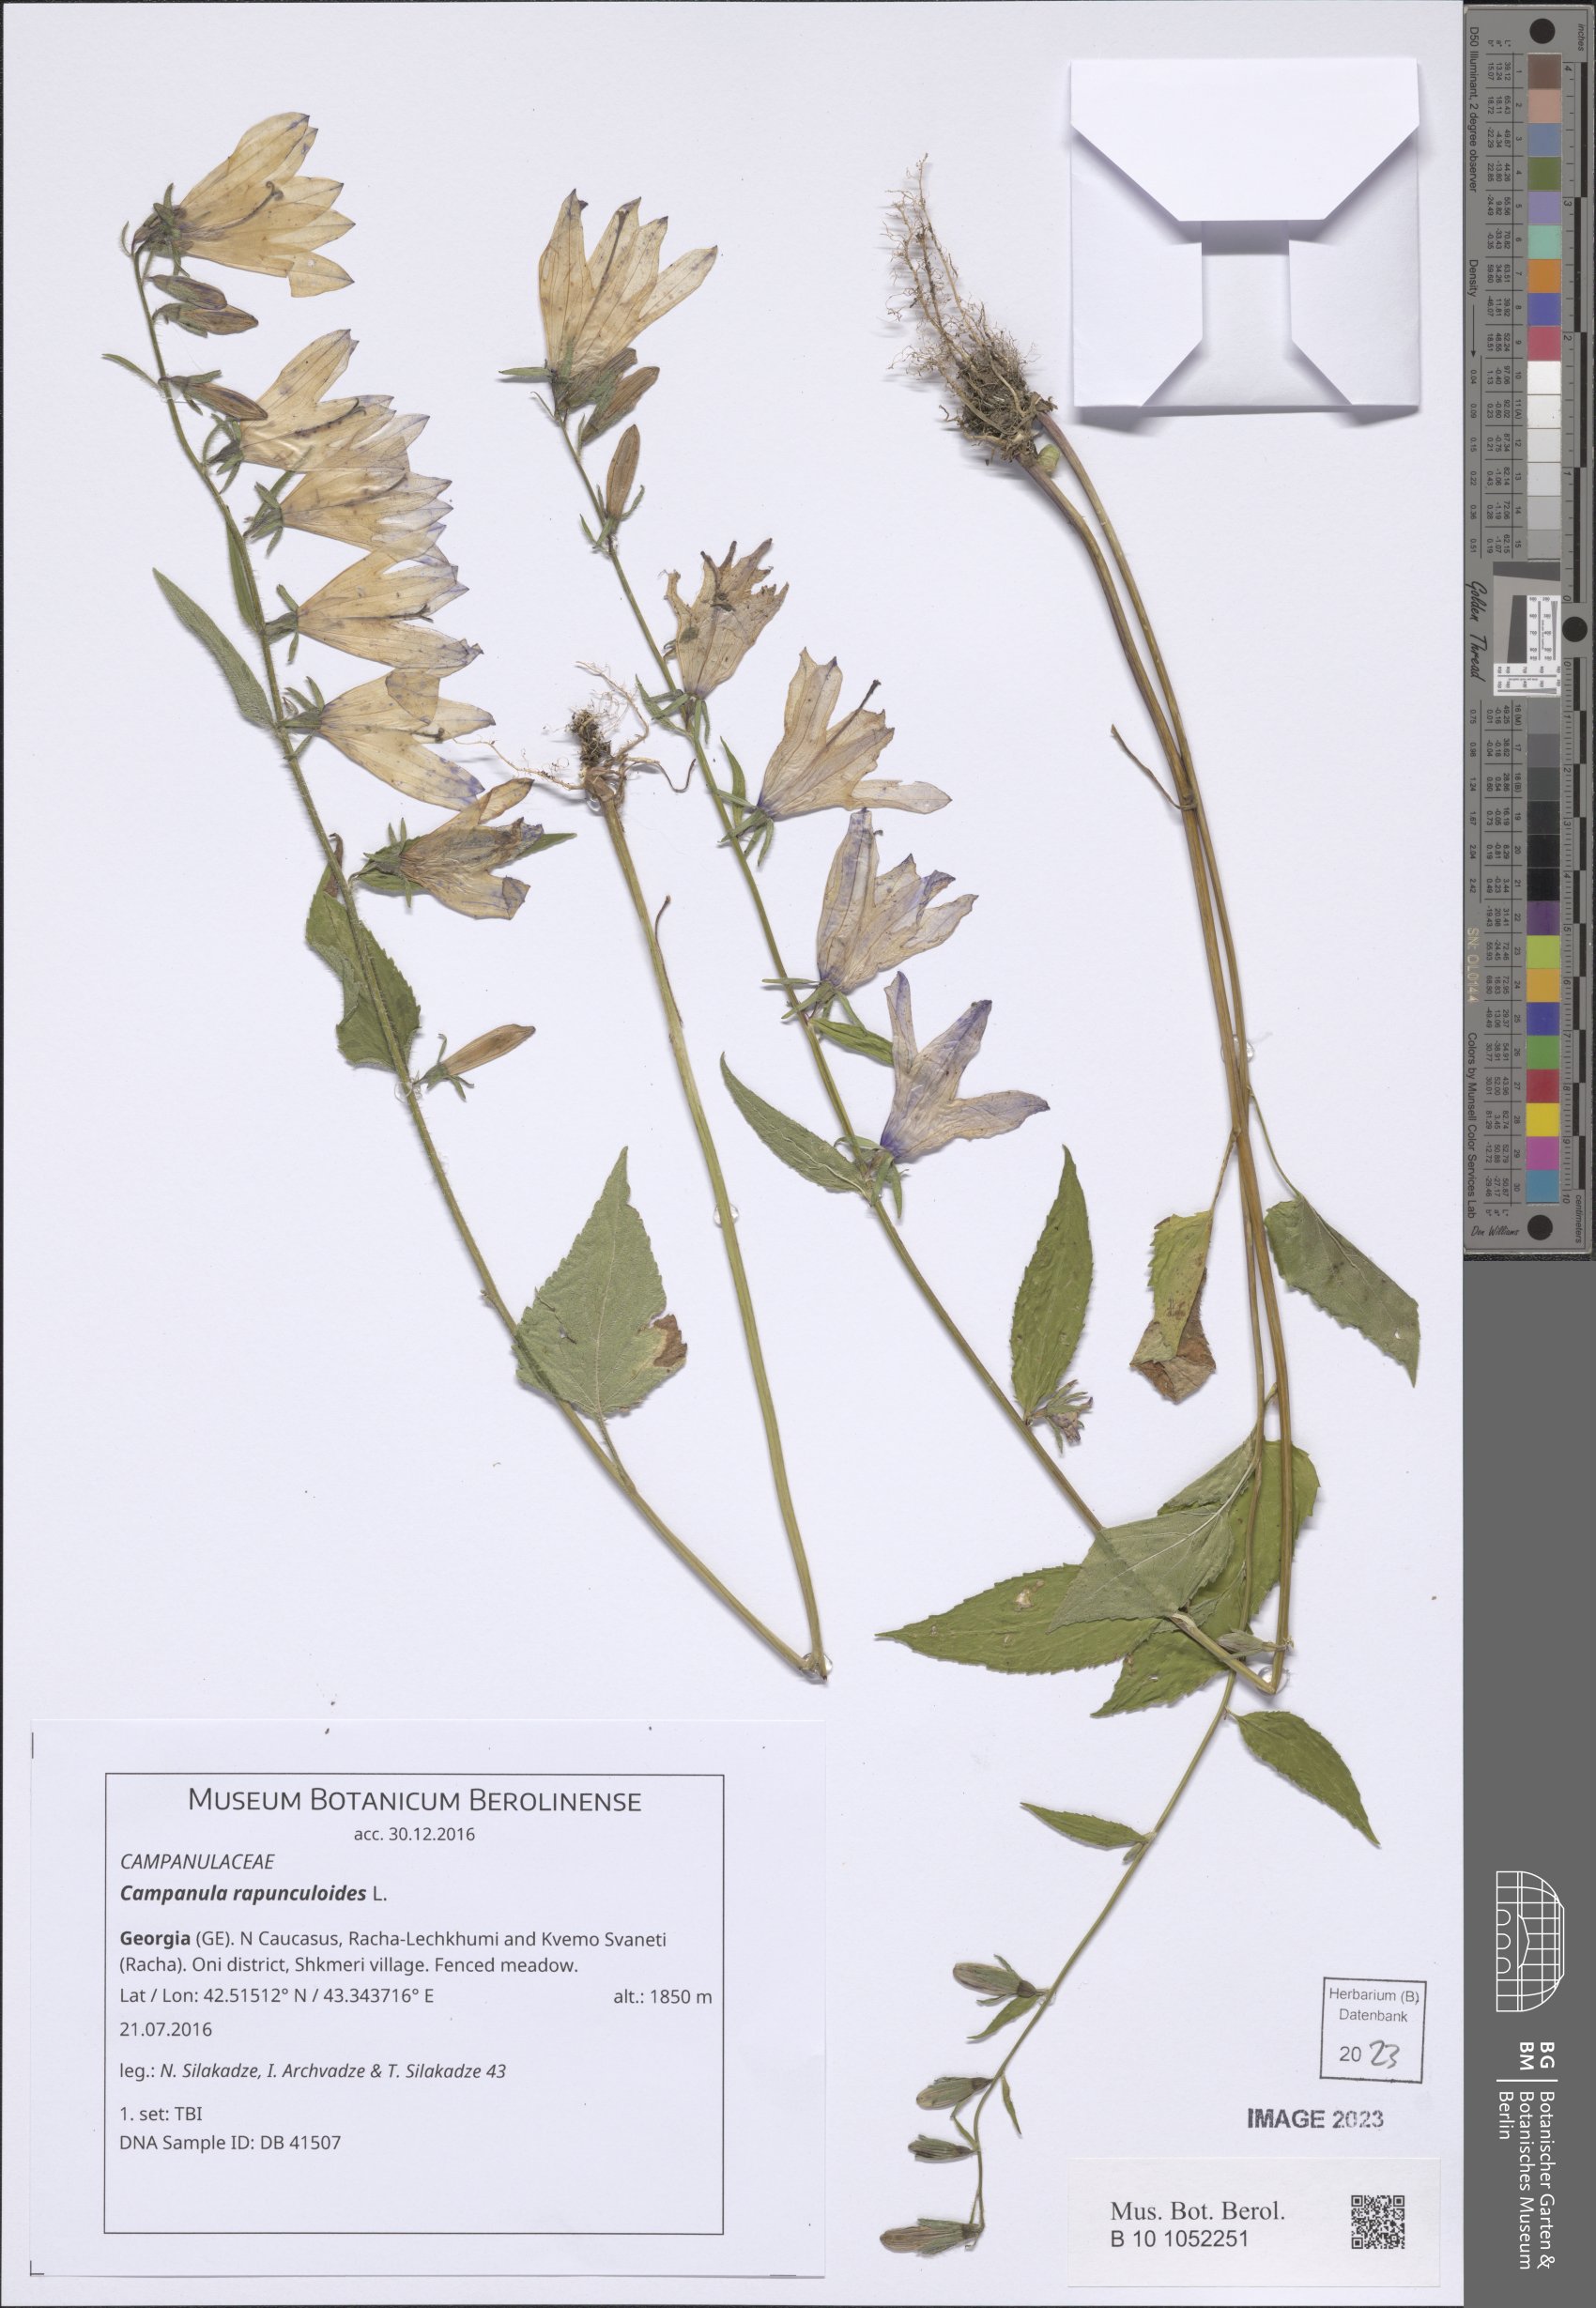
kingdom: Plantae
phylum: Tracheophyta
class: Magnoliopsida
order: Asterales
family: Campanulaceae
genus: Campanula
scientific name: Campanula rapunculoides
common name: Creeping bellflower
